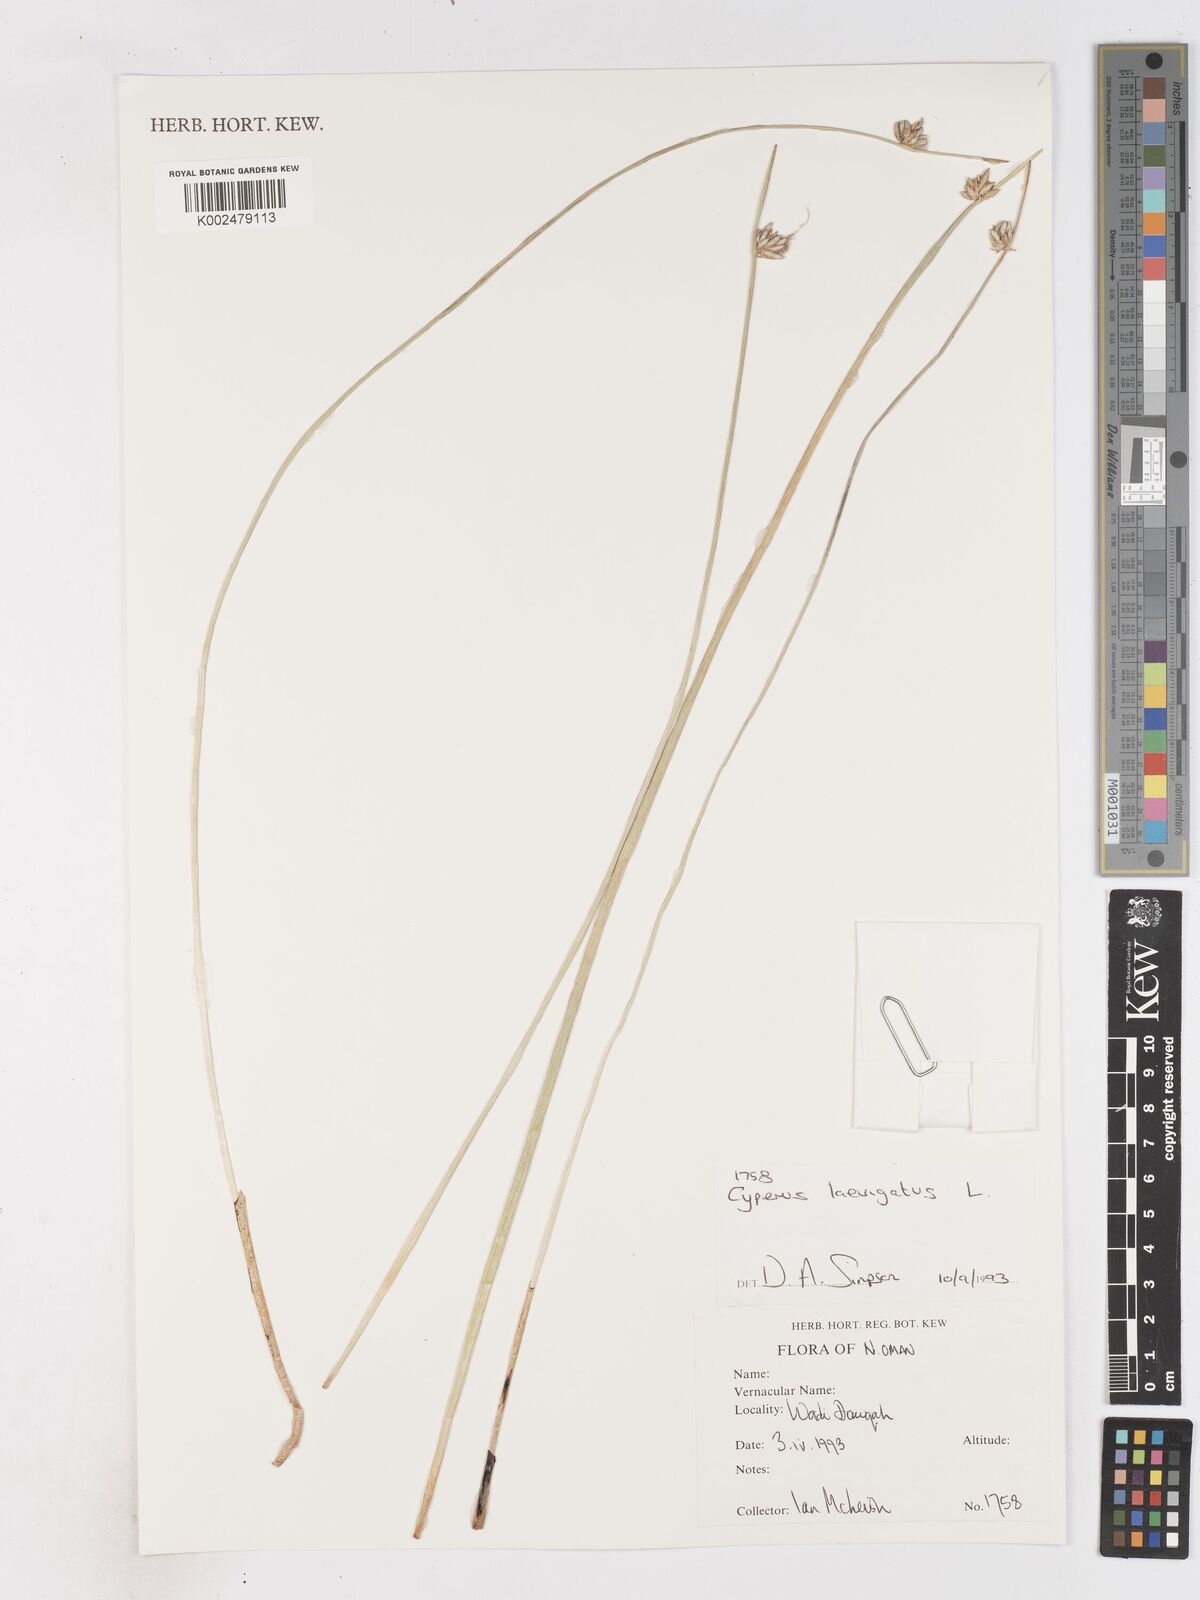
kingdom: Plantae
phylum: Tracheophyta
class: Liliopsida
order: Poales
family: Cyperaceae
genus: Cyperus
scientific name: Cyperus laevigatus
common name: Smooth flat sedge
